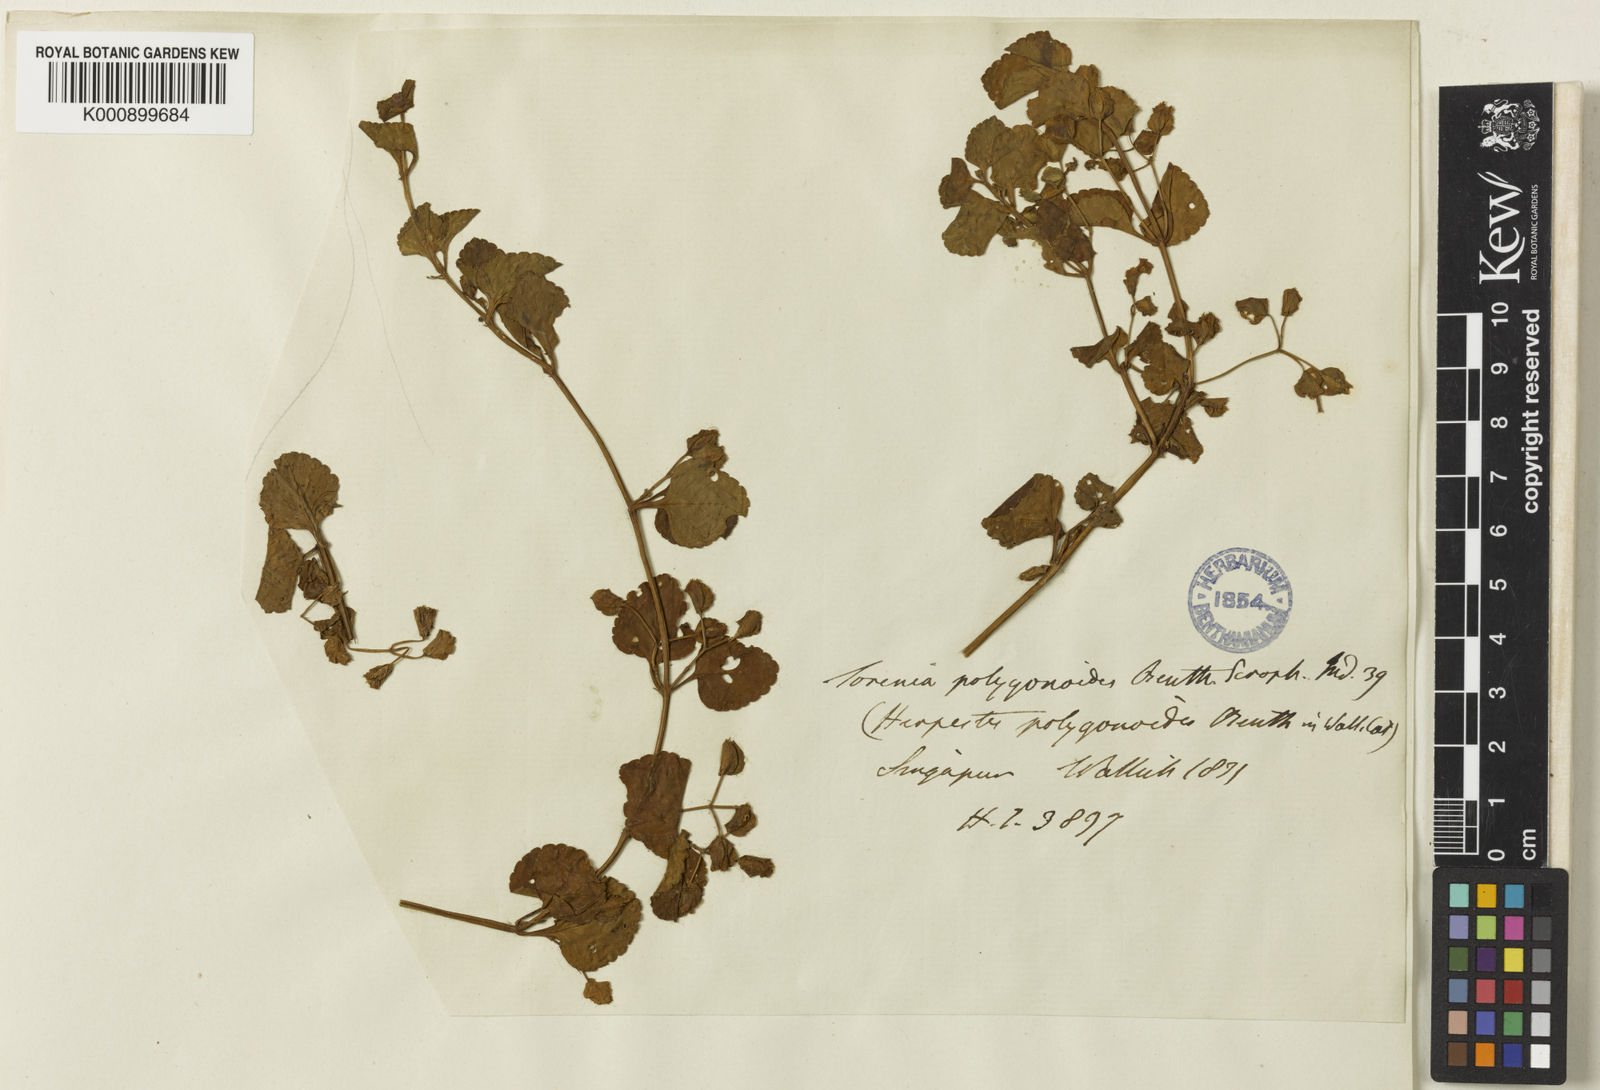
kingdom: Plantae
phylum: Tracheophyta
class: Magnoliopsida
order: Lamiales
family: Linderniaceae
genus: Legazpia
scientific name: Legazpia polygonoides
